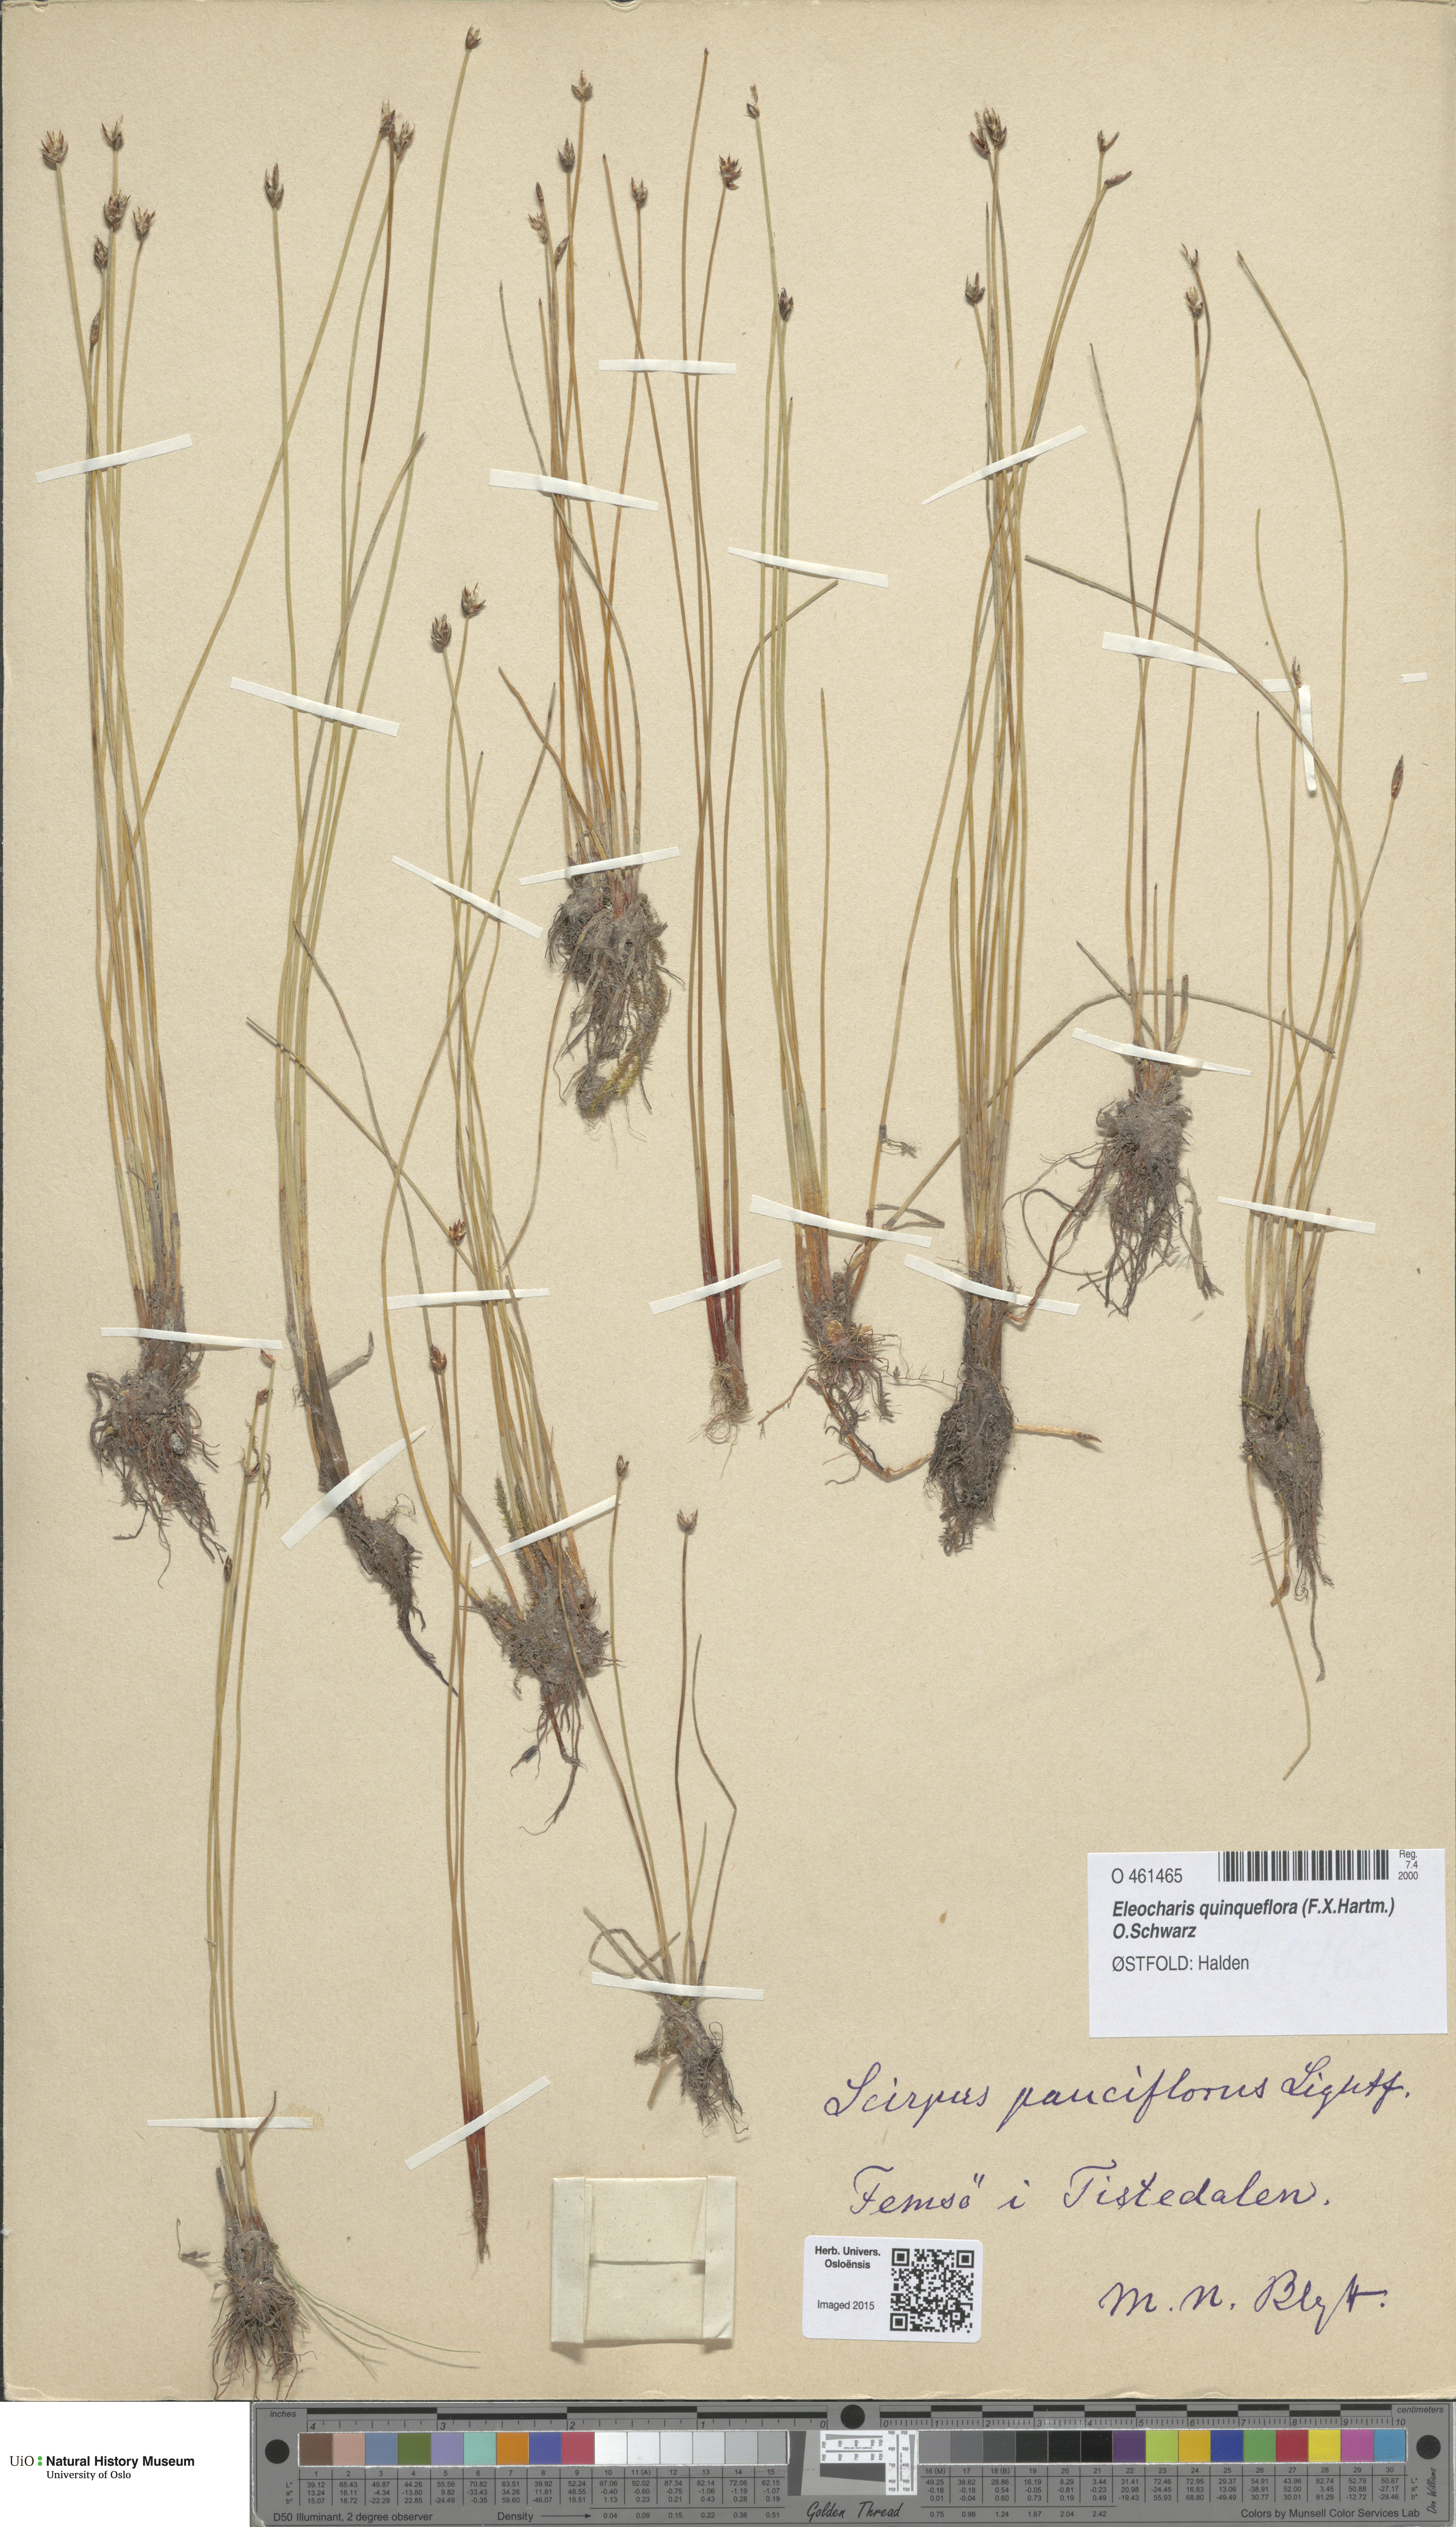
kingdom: Plantae
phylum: Tracheophyta
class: Liliopsida
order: Poales
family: Cyperaceae
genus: Eleocharis
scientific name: Eleocharis quinqueflora
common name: Few-flowered spike-rush
